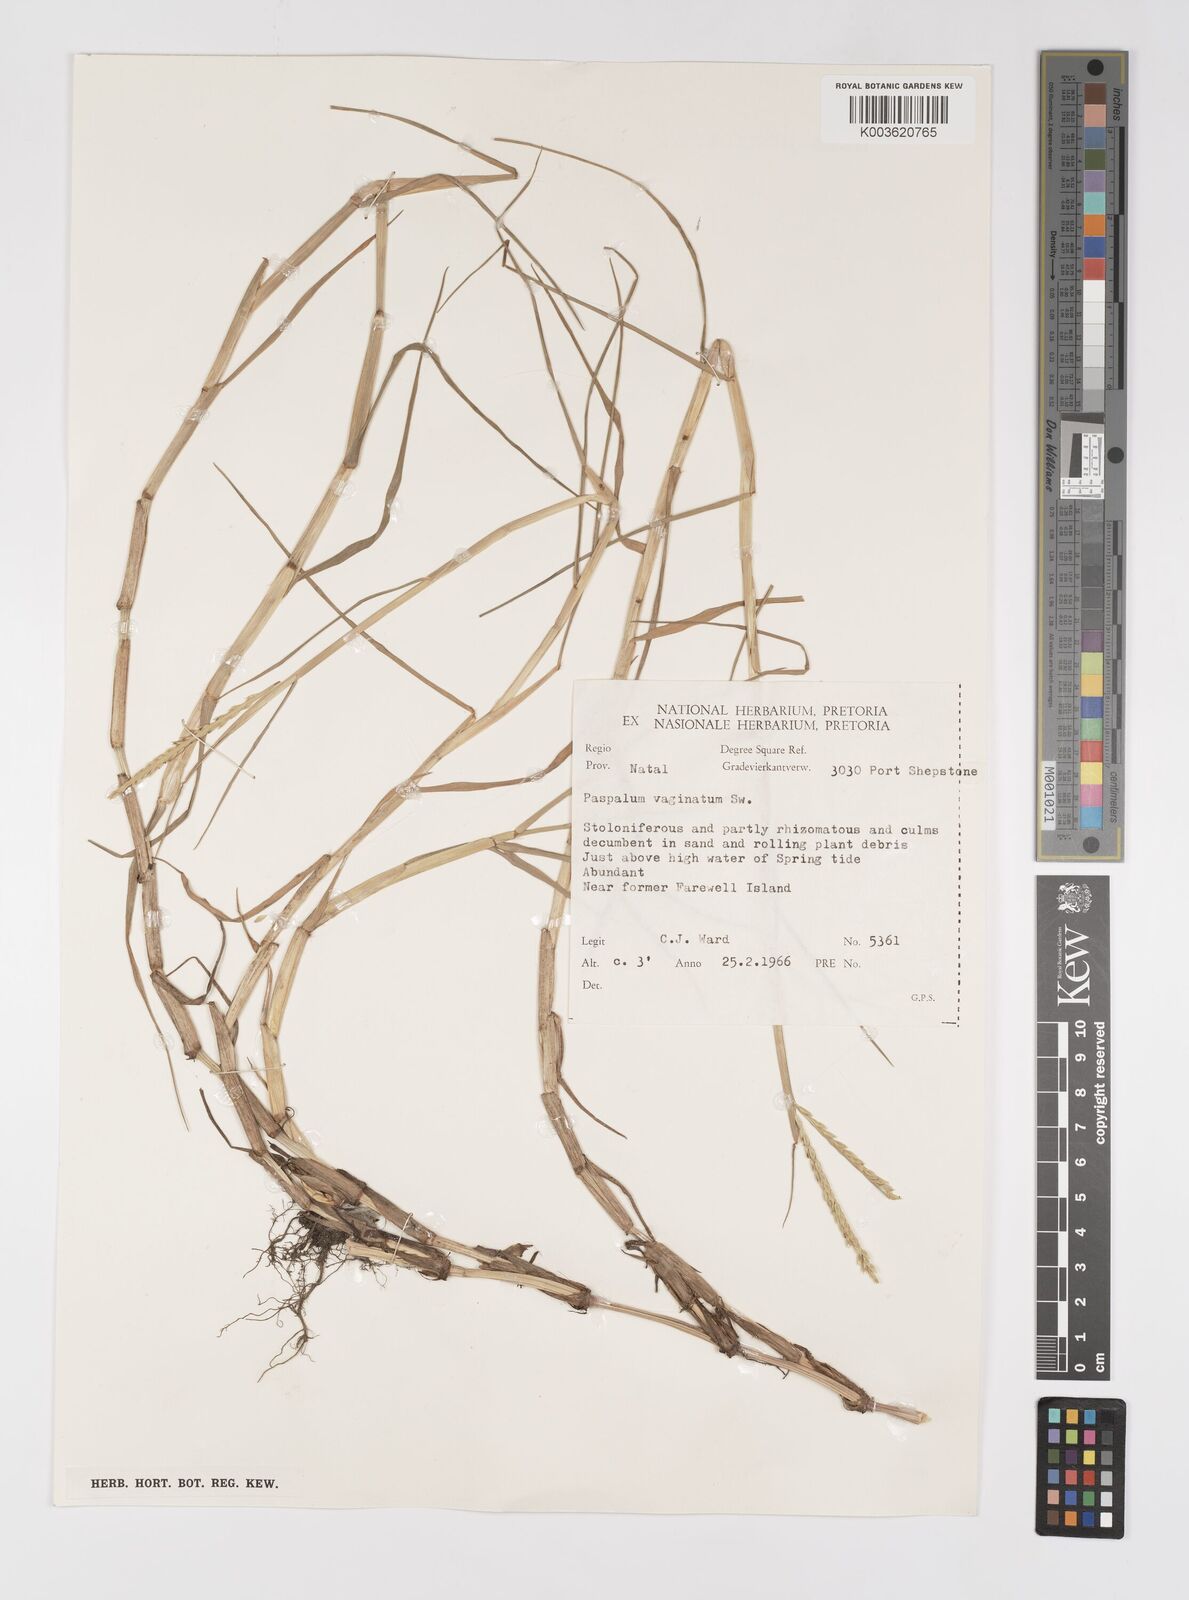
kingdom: Plantae
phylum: Tracheophyta
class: Liliopsida
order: Poales
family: Poaceae
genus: Paspalum
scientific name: Paspalum vaginatum
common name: Seashore paspalum
